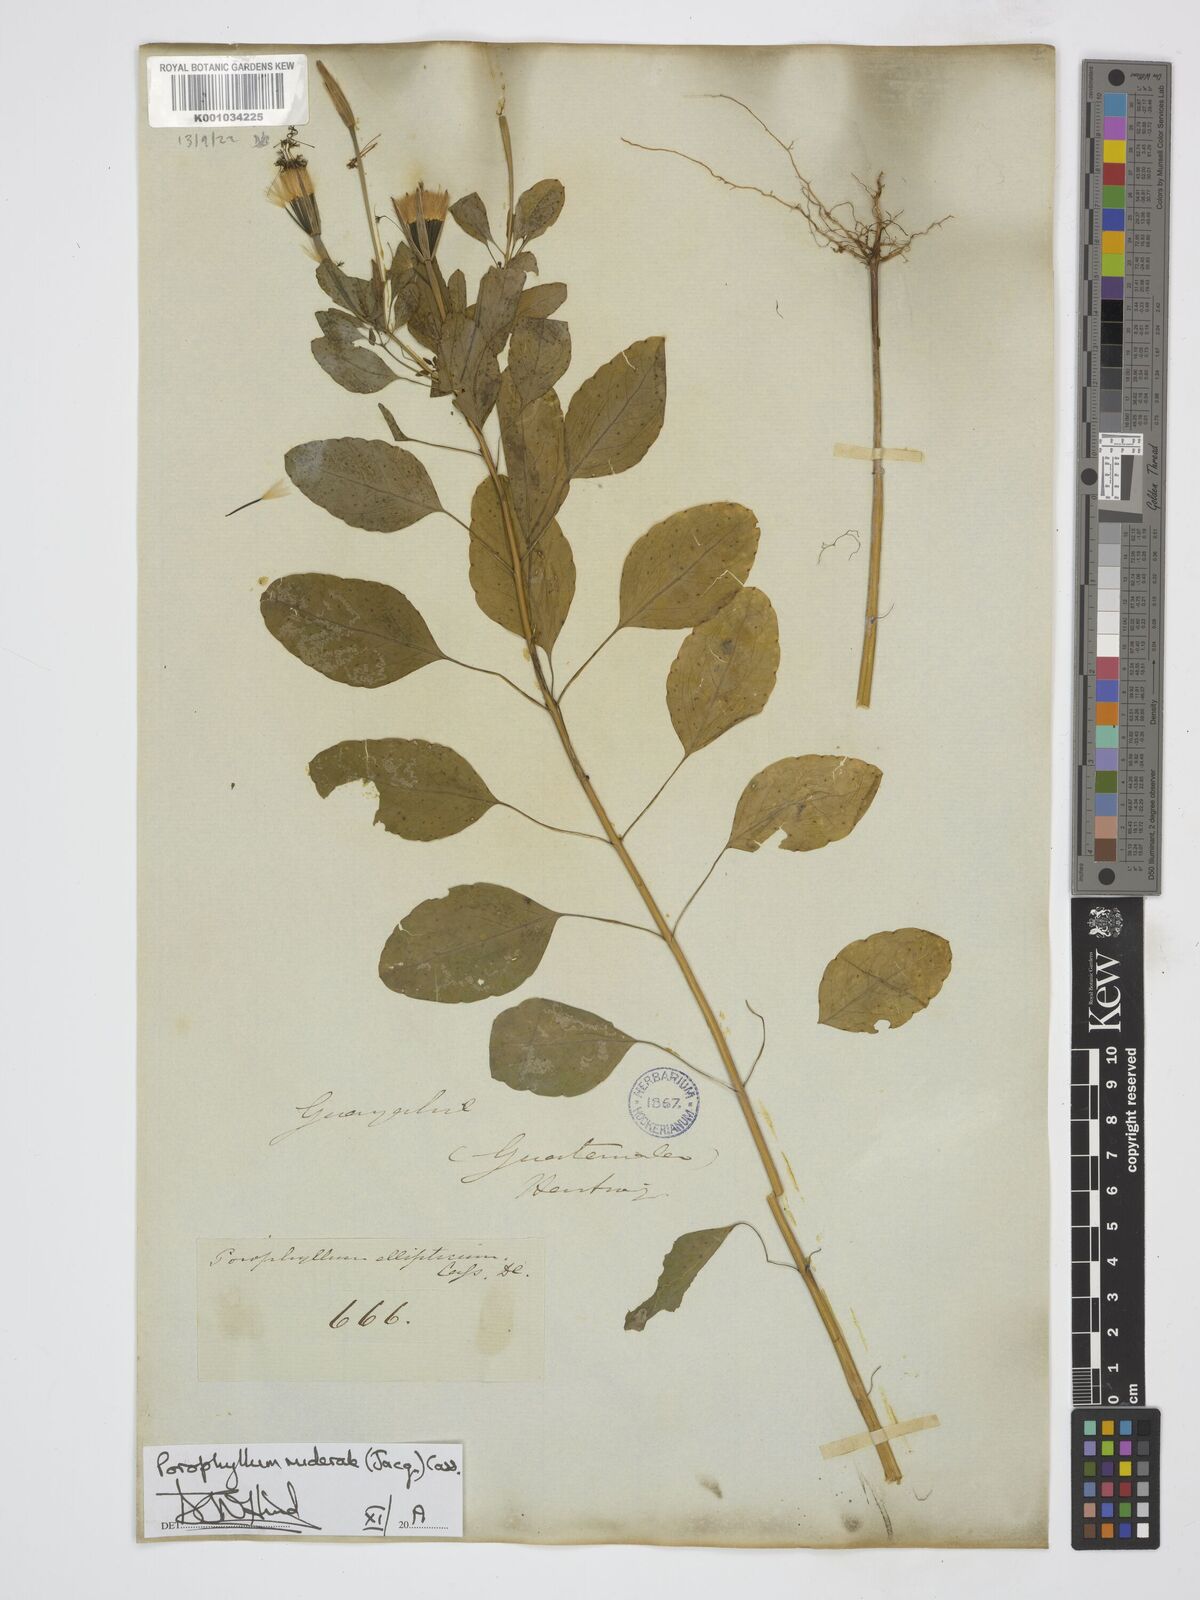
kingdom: Plantae
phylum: Tracheophyta
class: Magnoliopsida
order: Asterales
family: Asteraceae
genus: Porophyllum
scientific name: Porophyllum ruderale
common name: Yerba porosa
